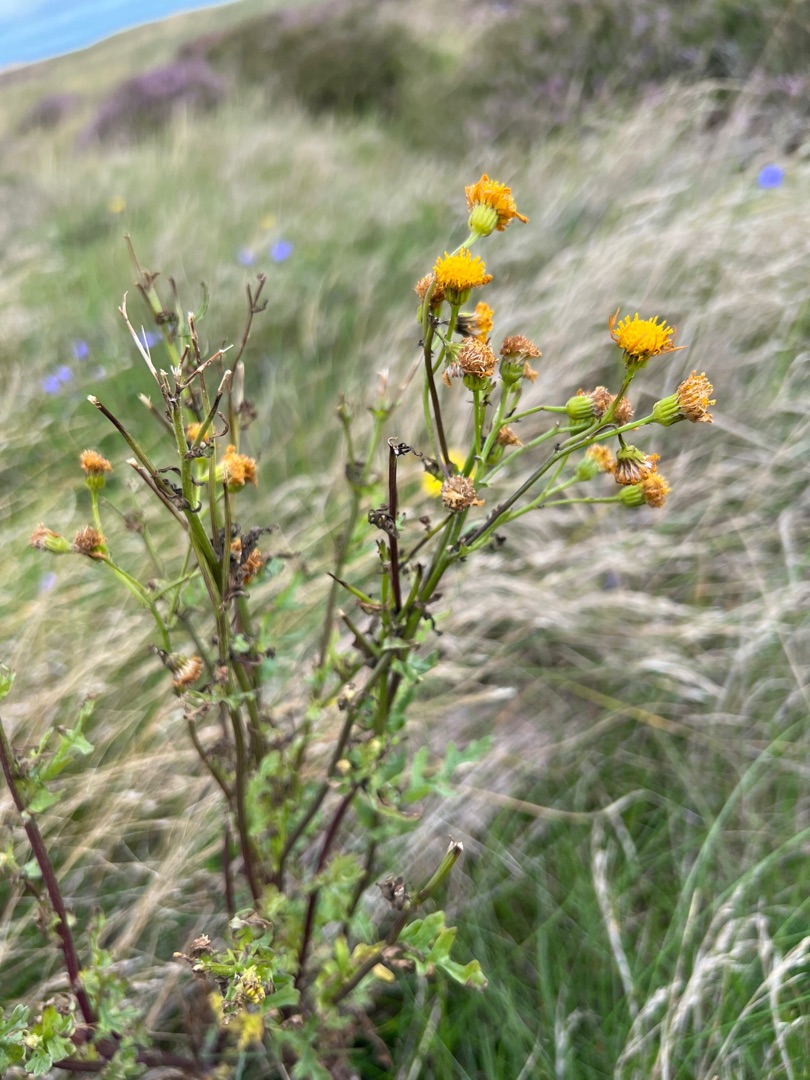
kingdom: Plantae
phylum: Tracheophyta
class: Magnoliopsida
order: Asterales
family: Asteraceae
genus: Jacobaea
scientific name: Jacobaea vulgaris
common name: Eng-brandbæger
